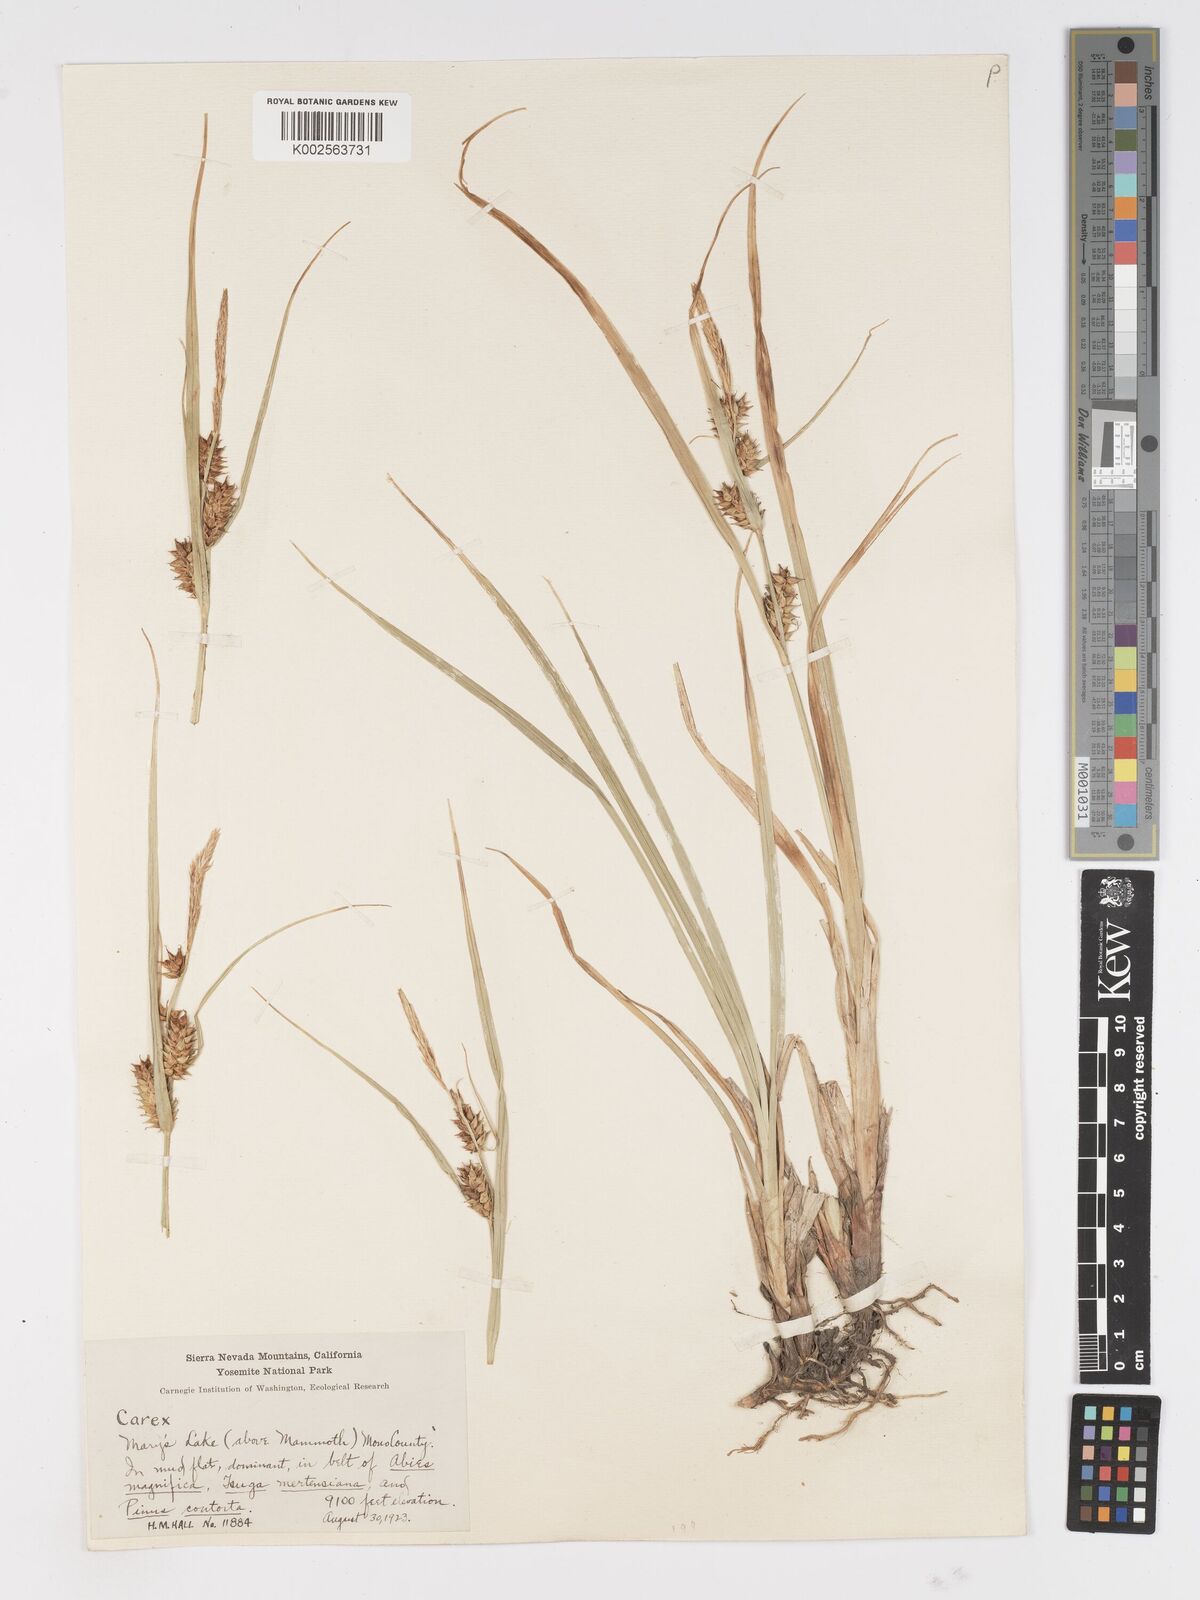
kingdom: Plantae
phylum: Tracheophyta
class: Liliopsida
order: Poales
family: Cyperaceae
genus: Carex
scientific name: Carex vesicaria
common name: Bladder-sedge
